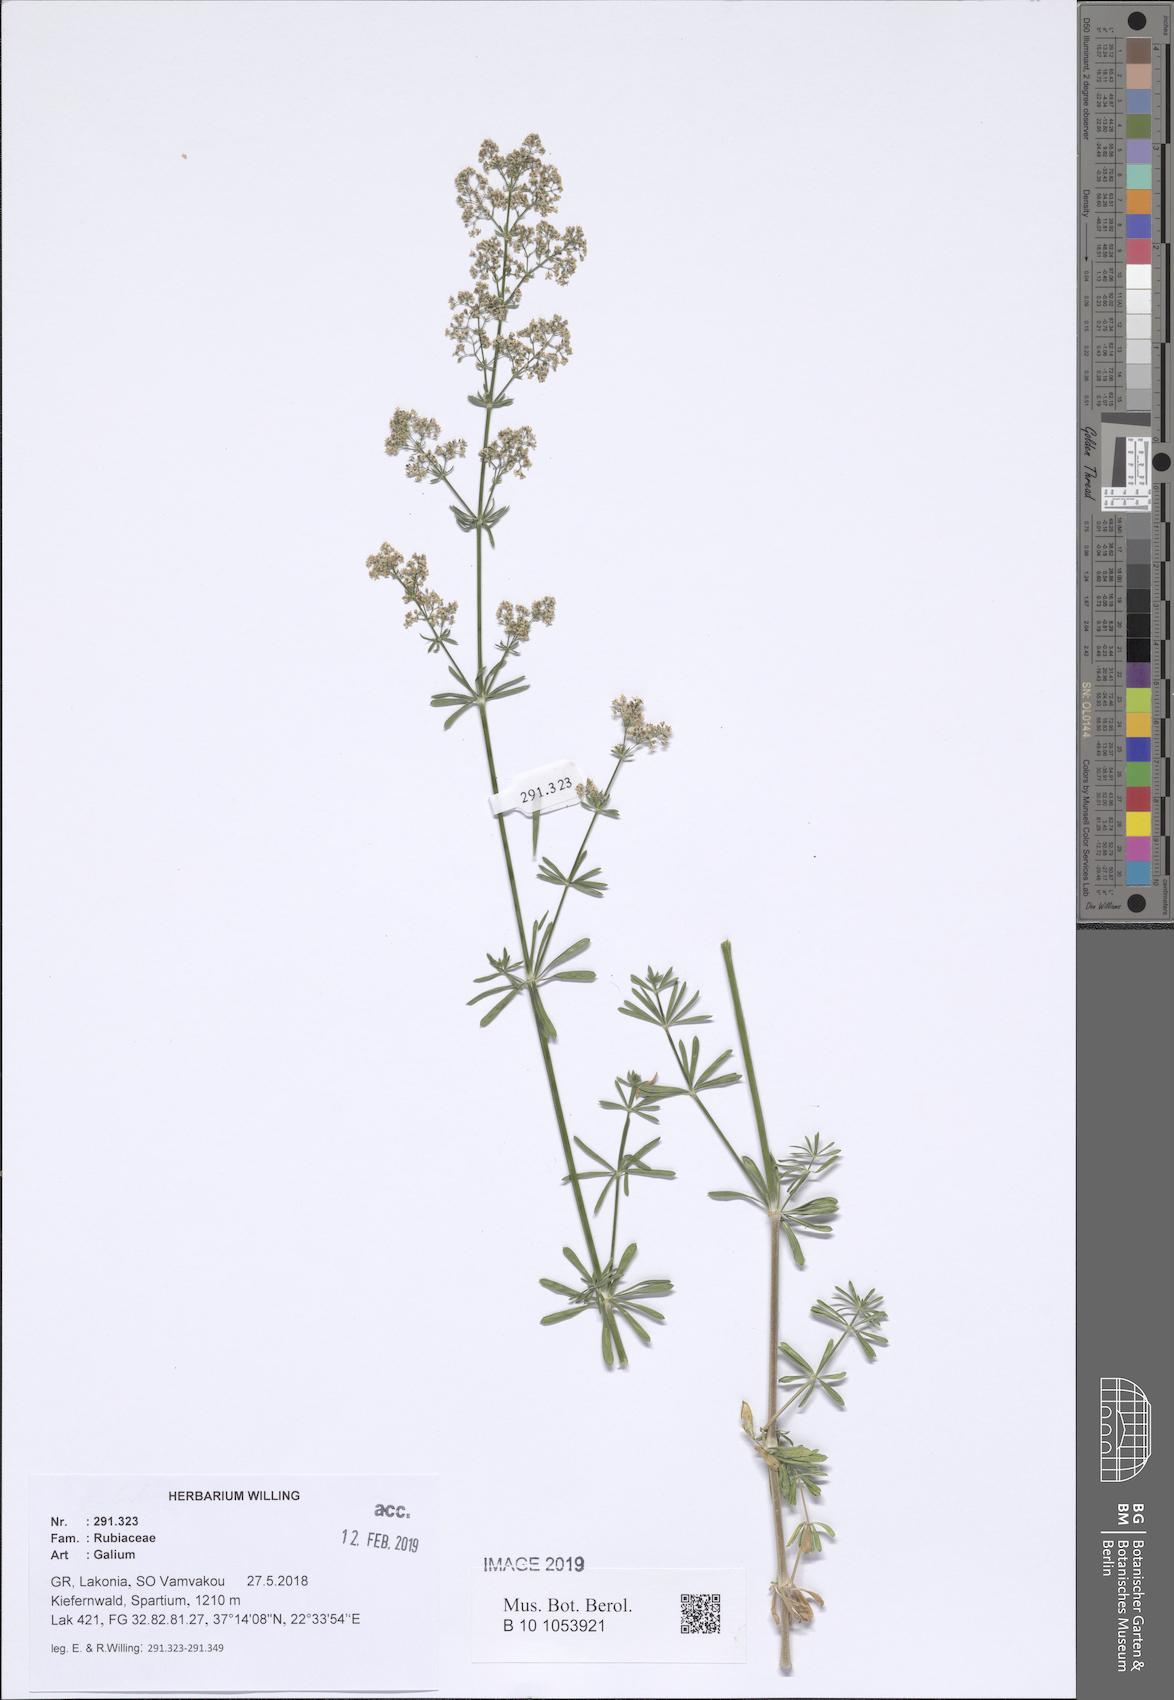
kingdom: Plantae
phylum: Tracheophyta
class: Magnoliopsida
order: Gentianales
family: Rubiaceae
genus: Galium
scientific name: Galium
